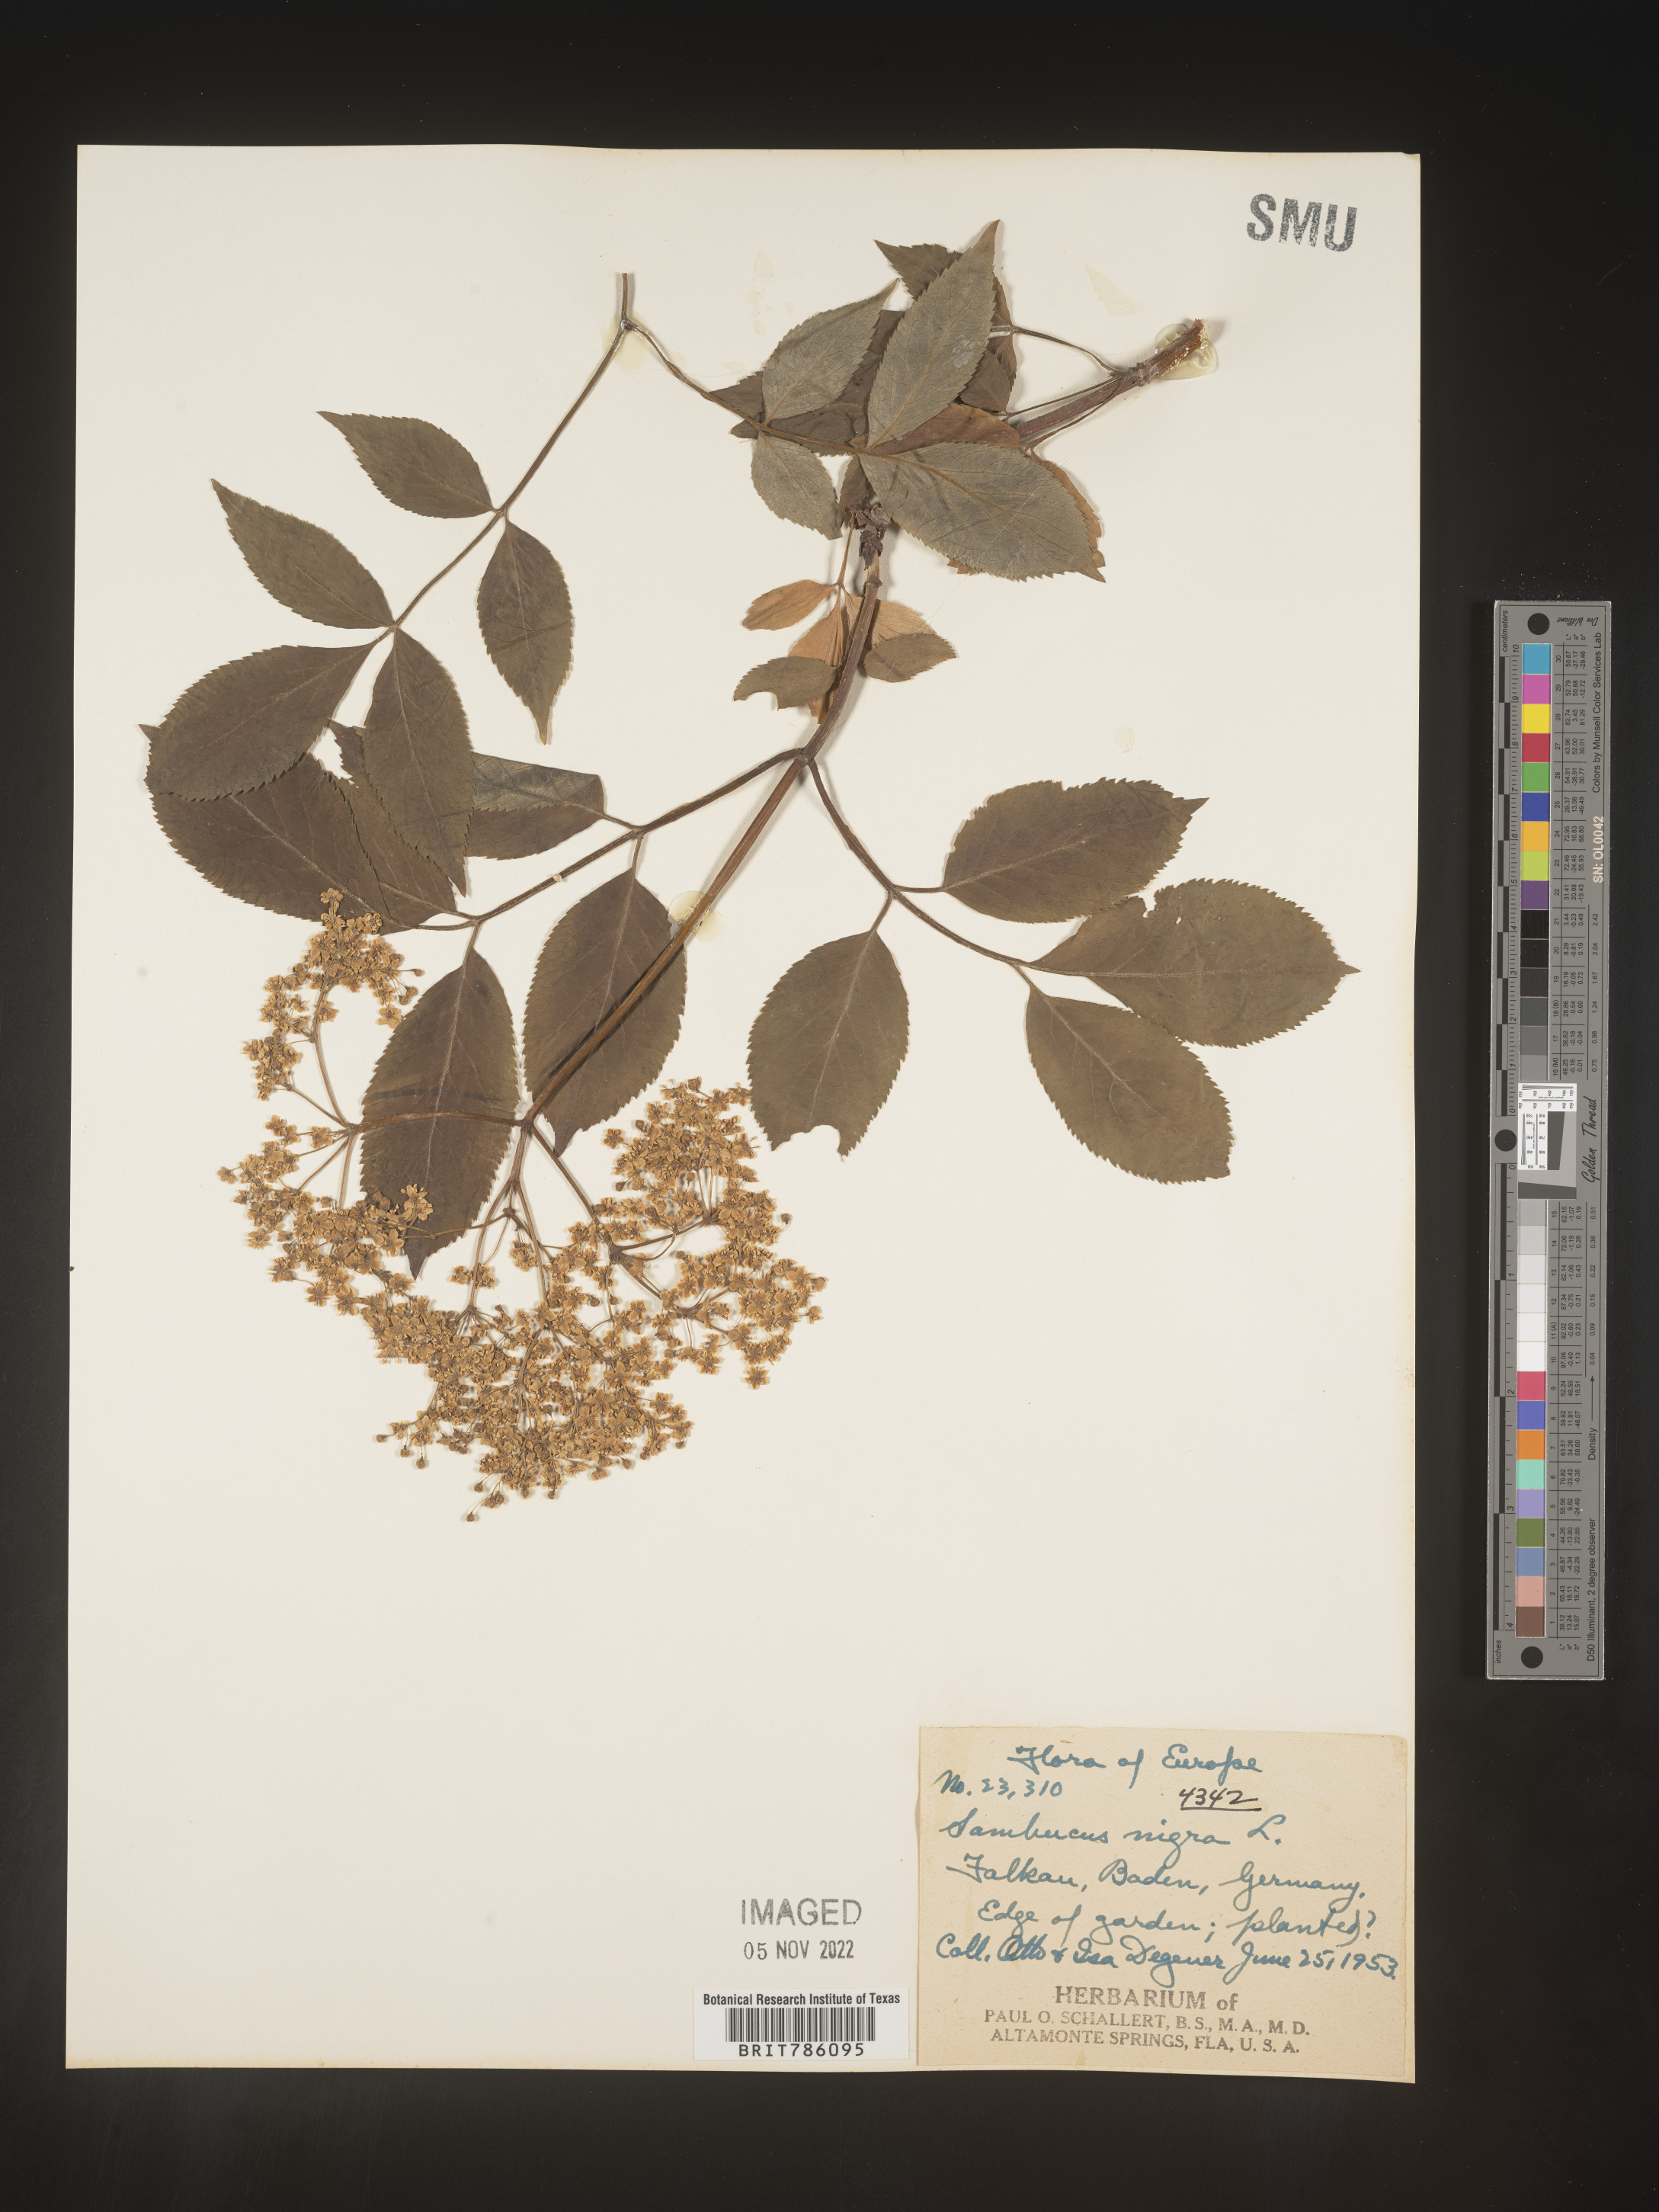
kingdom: Plantae
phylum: Tracheophyta
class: Magnoliopsida
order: Dipsacales
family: Viburnaceae
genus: Sambucus
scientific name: Sambucus
